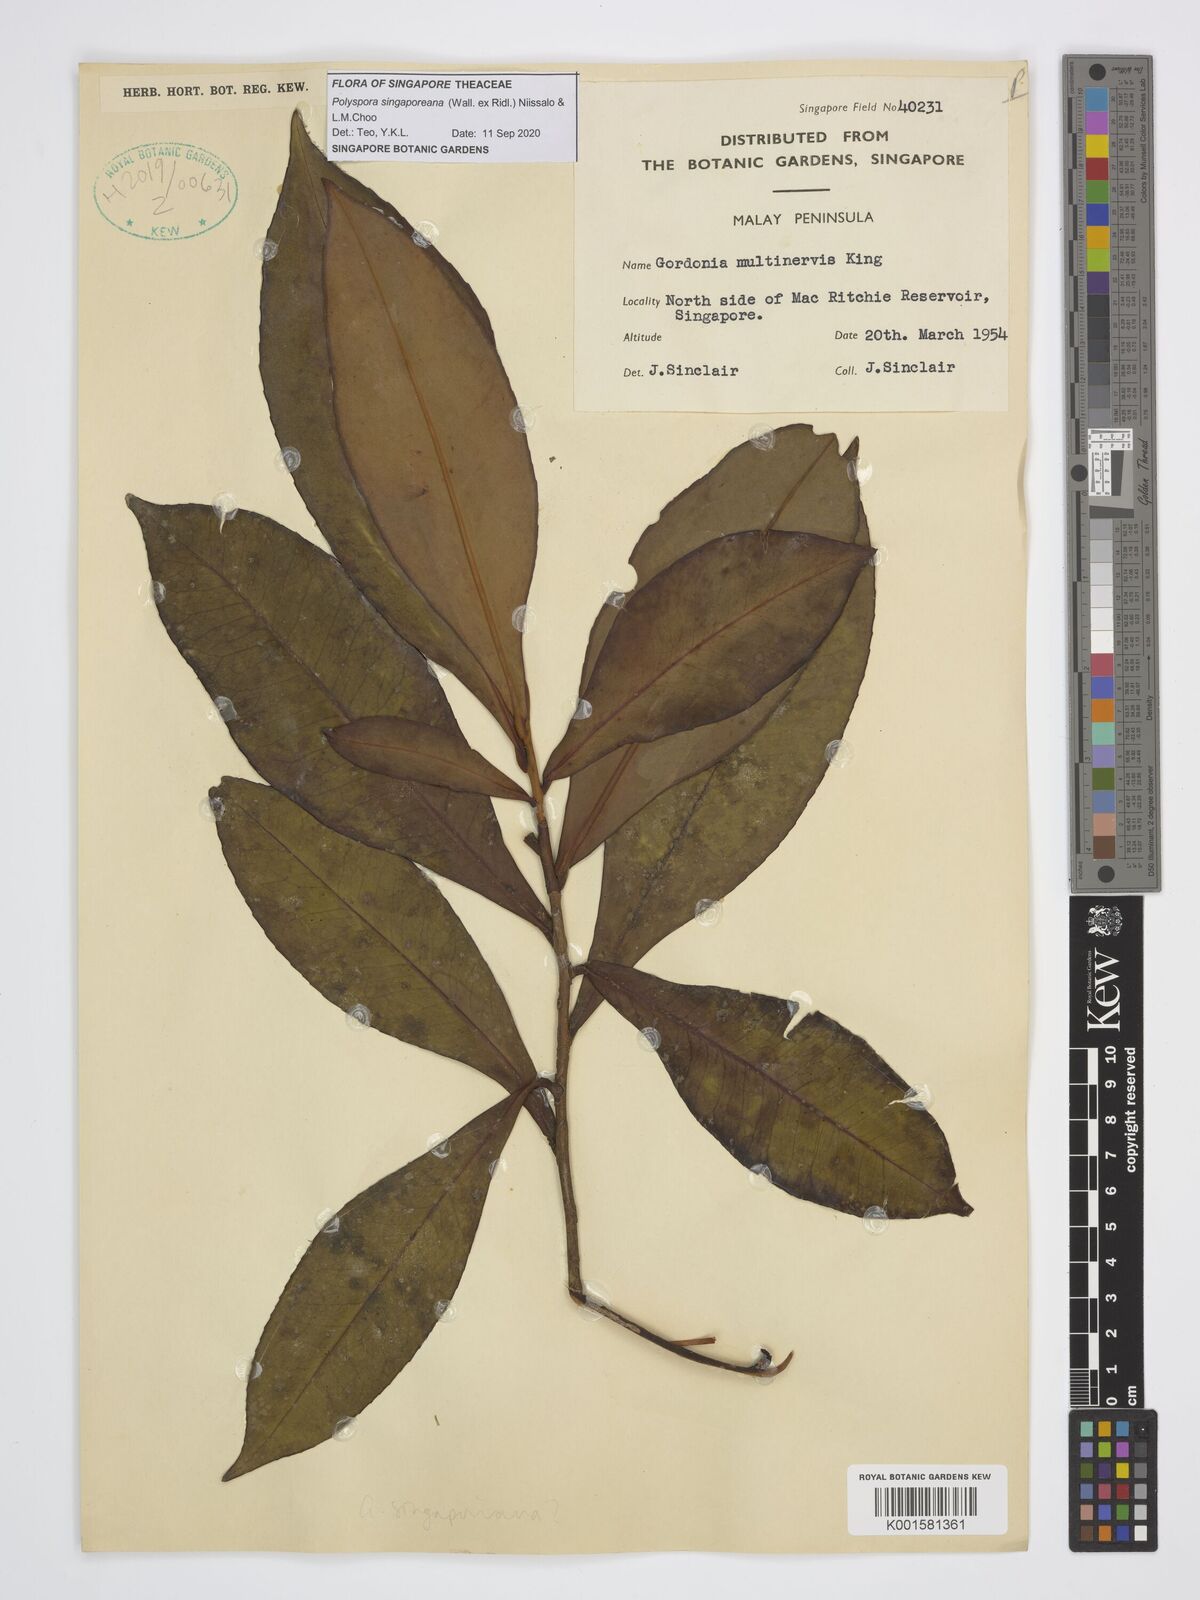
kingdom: Plantae
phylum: Tracheophyta
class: Magnoliopsida
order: Ericales
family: Theaceae
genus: Polyspora
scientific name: Polyspora
